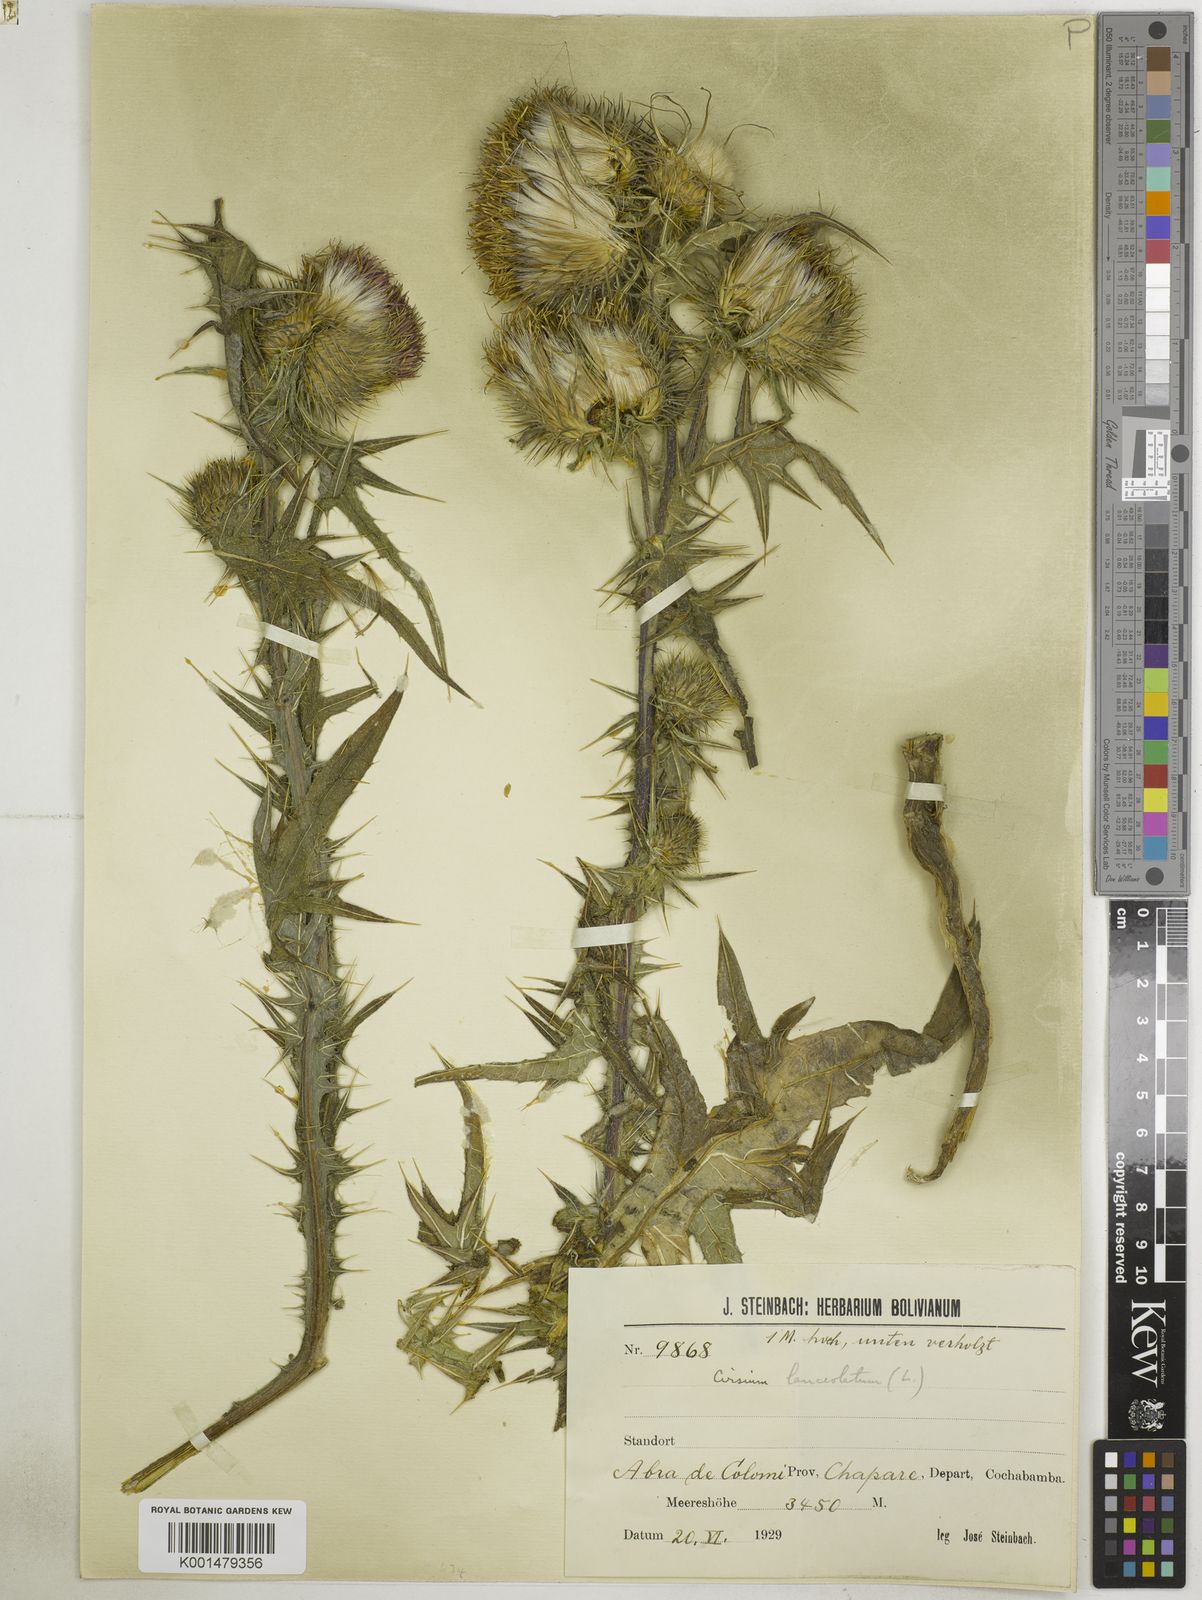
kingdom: Plantae
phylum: Tracheophyta
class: Magnoliopsida
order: Asterales
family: Asteraceae
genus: Cirsium
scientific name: Cirsium vulgare
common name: Bull thistle
